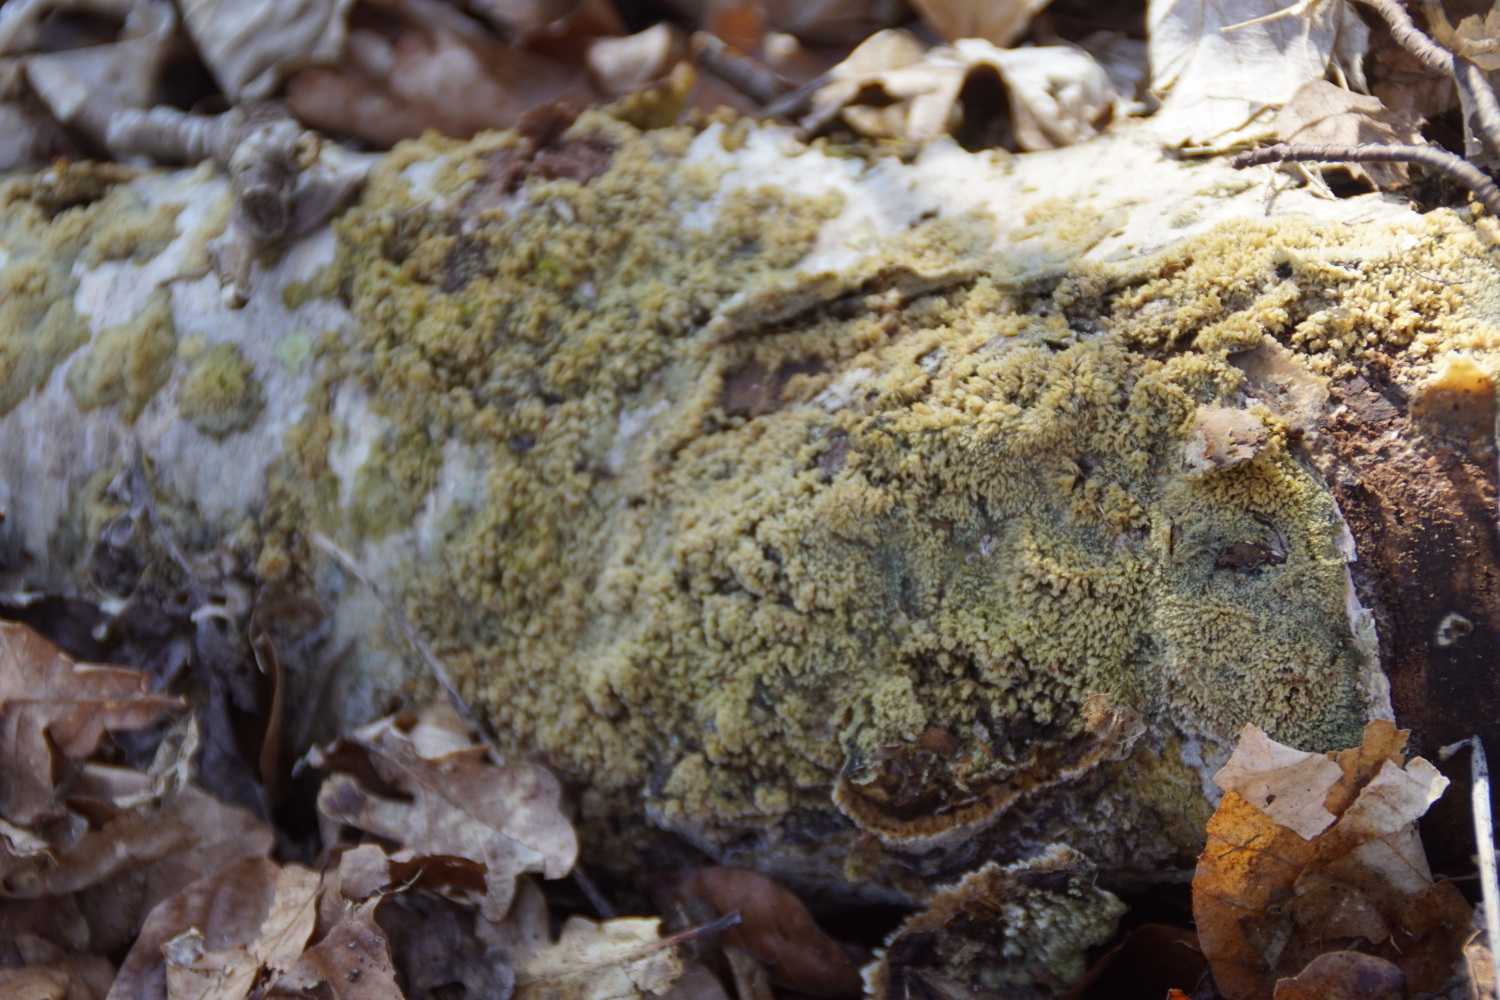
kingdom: Fungi
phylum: Basidiomycota
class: Agaricomycetes
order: Corticiales
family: Corticiaceae
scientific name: Corticiaceae
